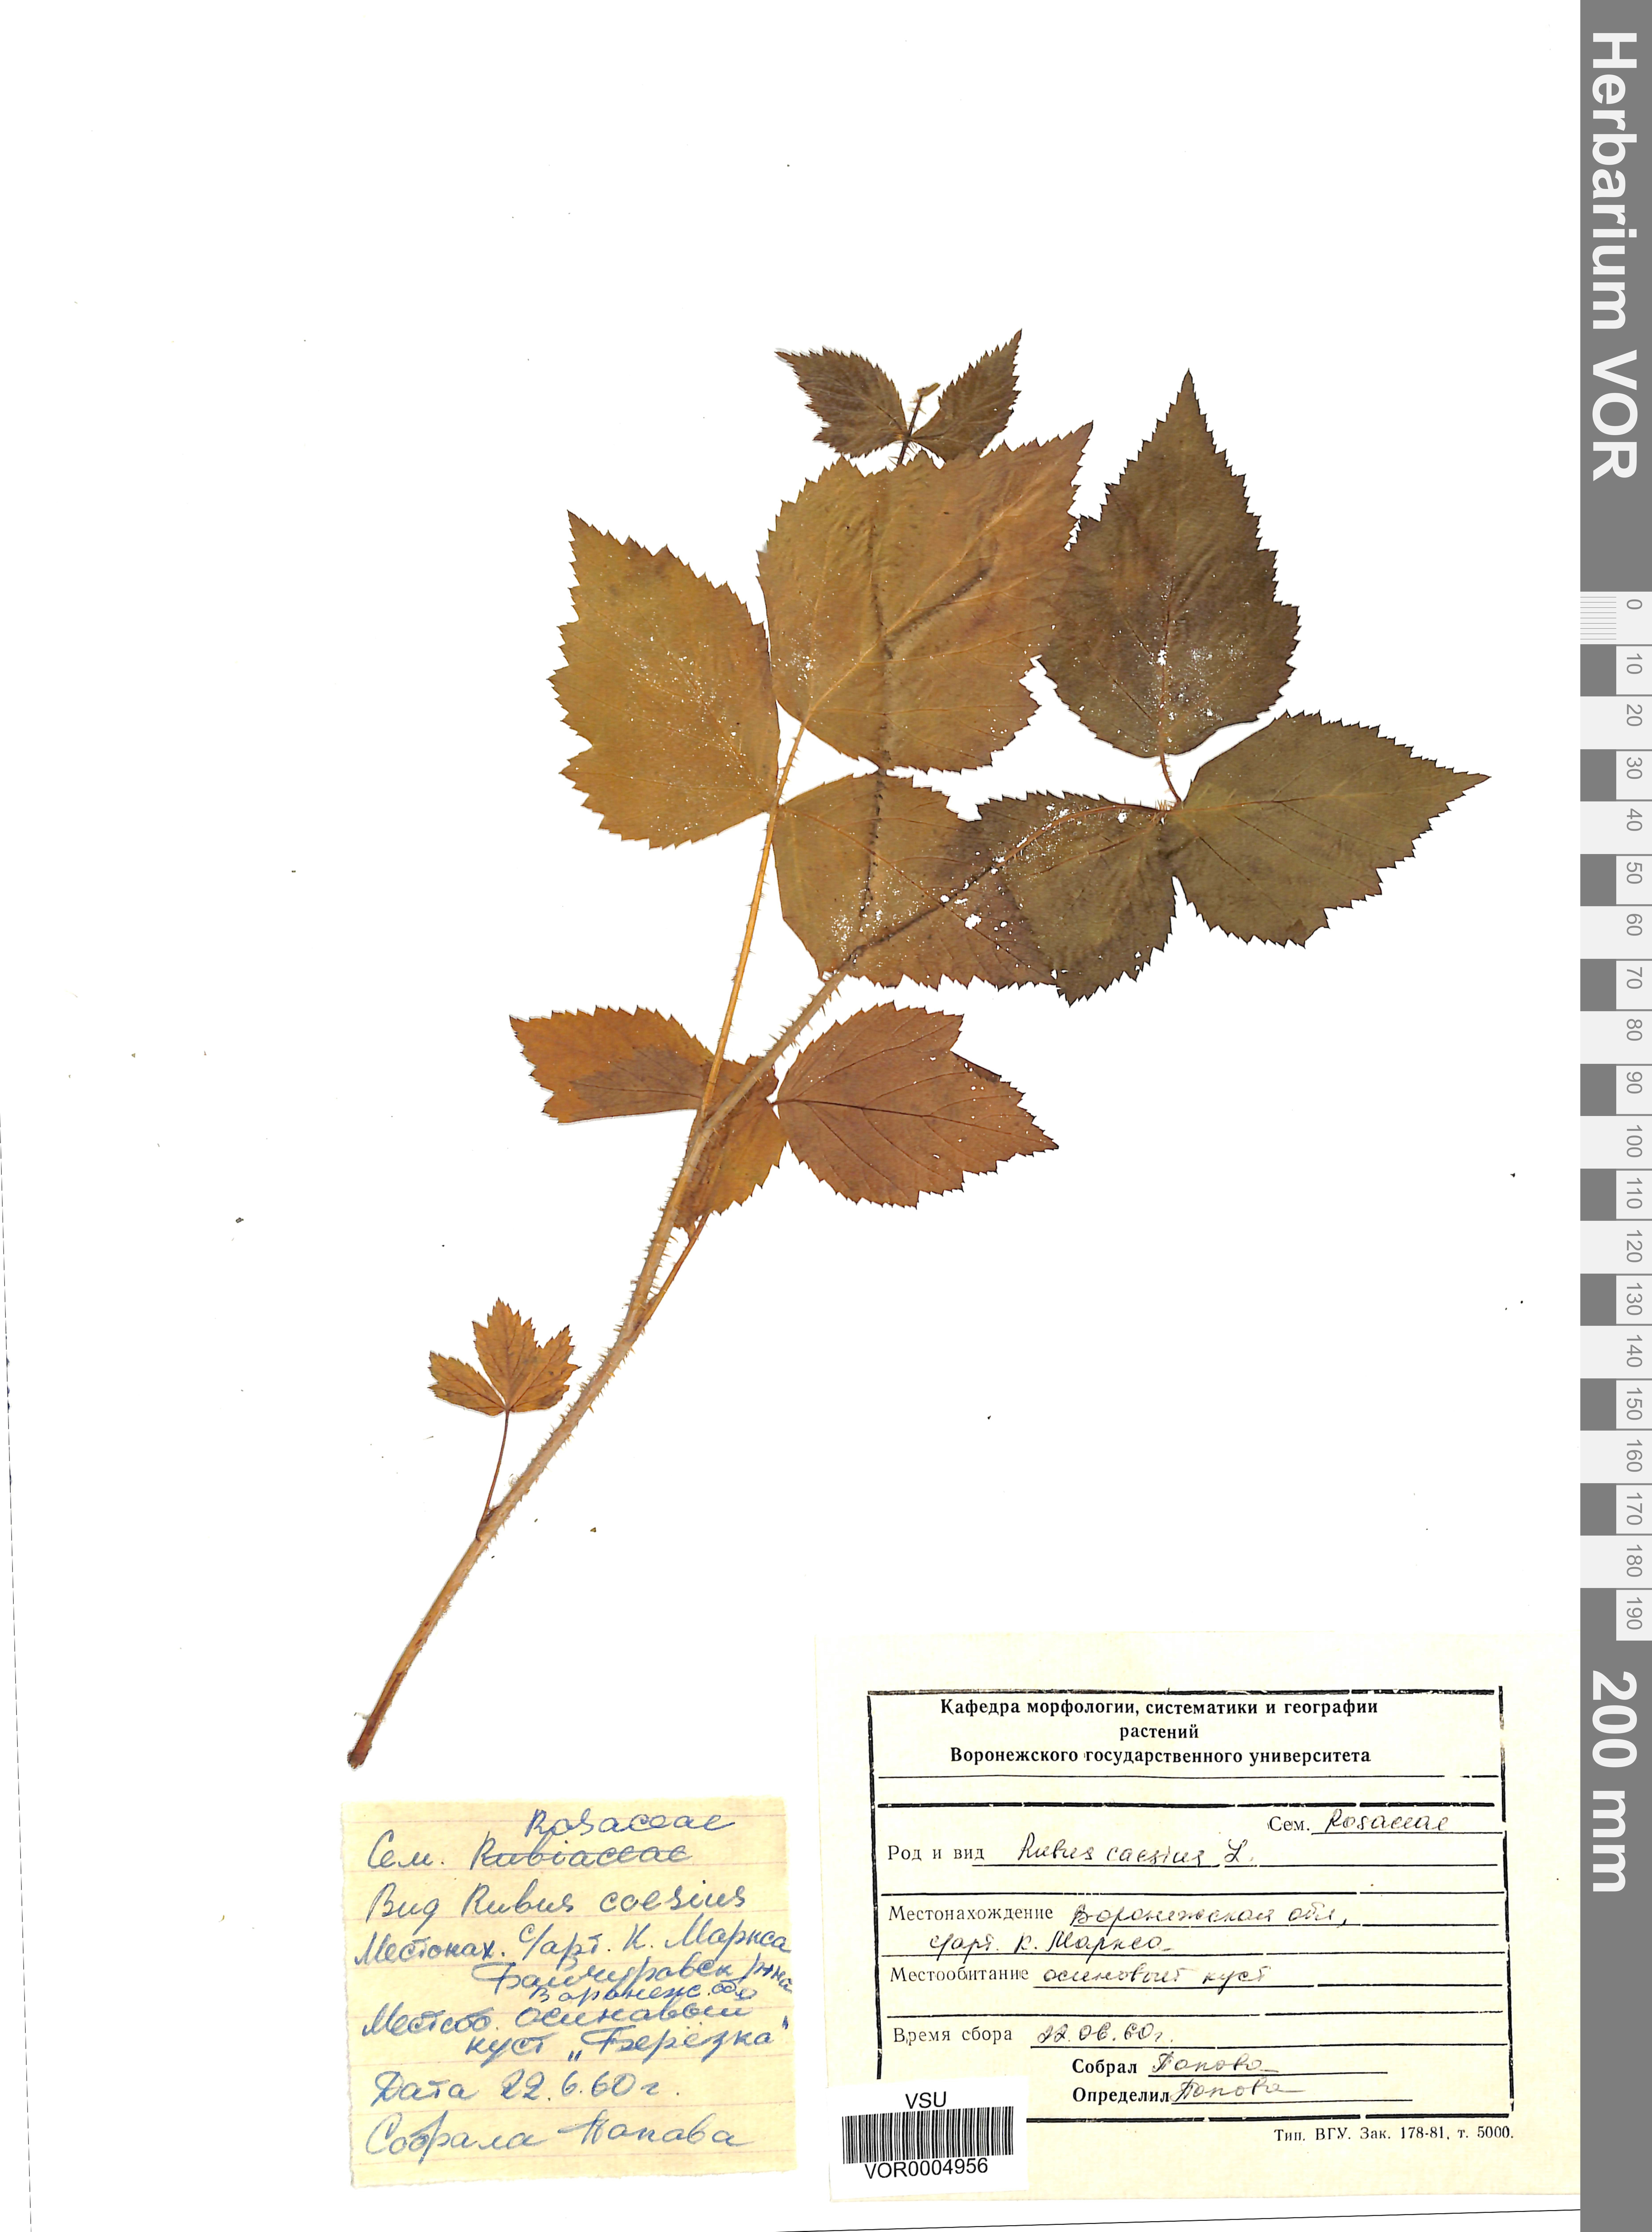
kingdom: Plantae
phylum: Tracheophyta
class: Magnoliopsida
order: Rosales
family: Rosaceae
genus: Rubus
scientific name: Rubus caesius
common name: Dewberry
